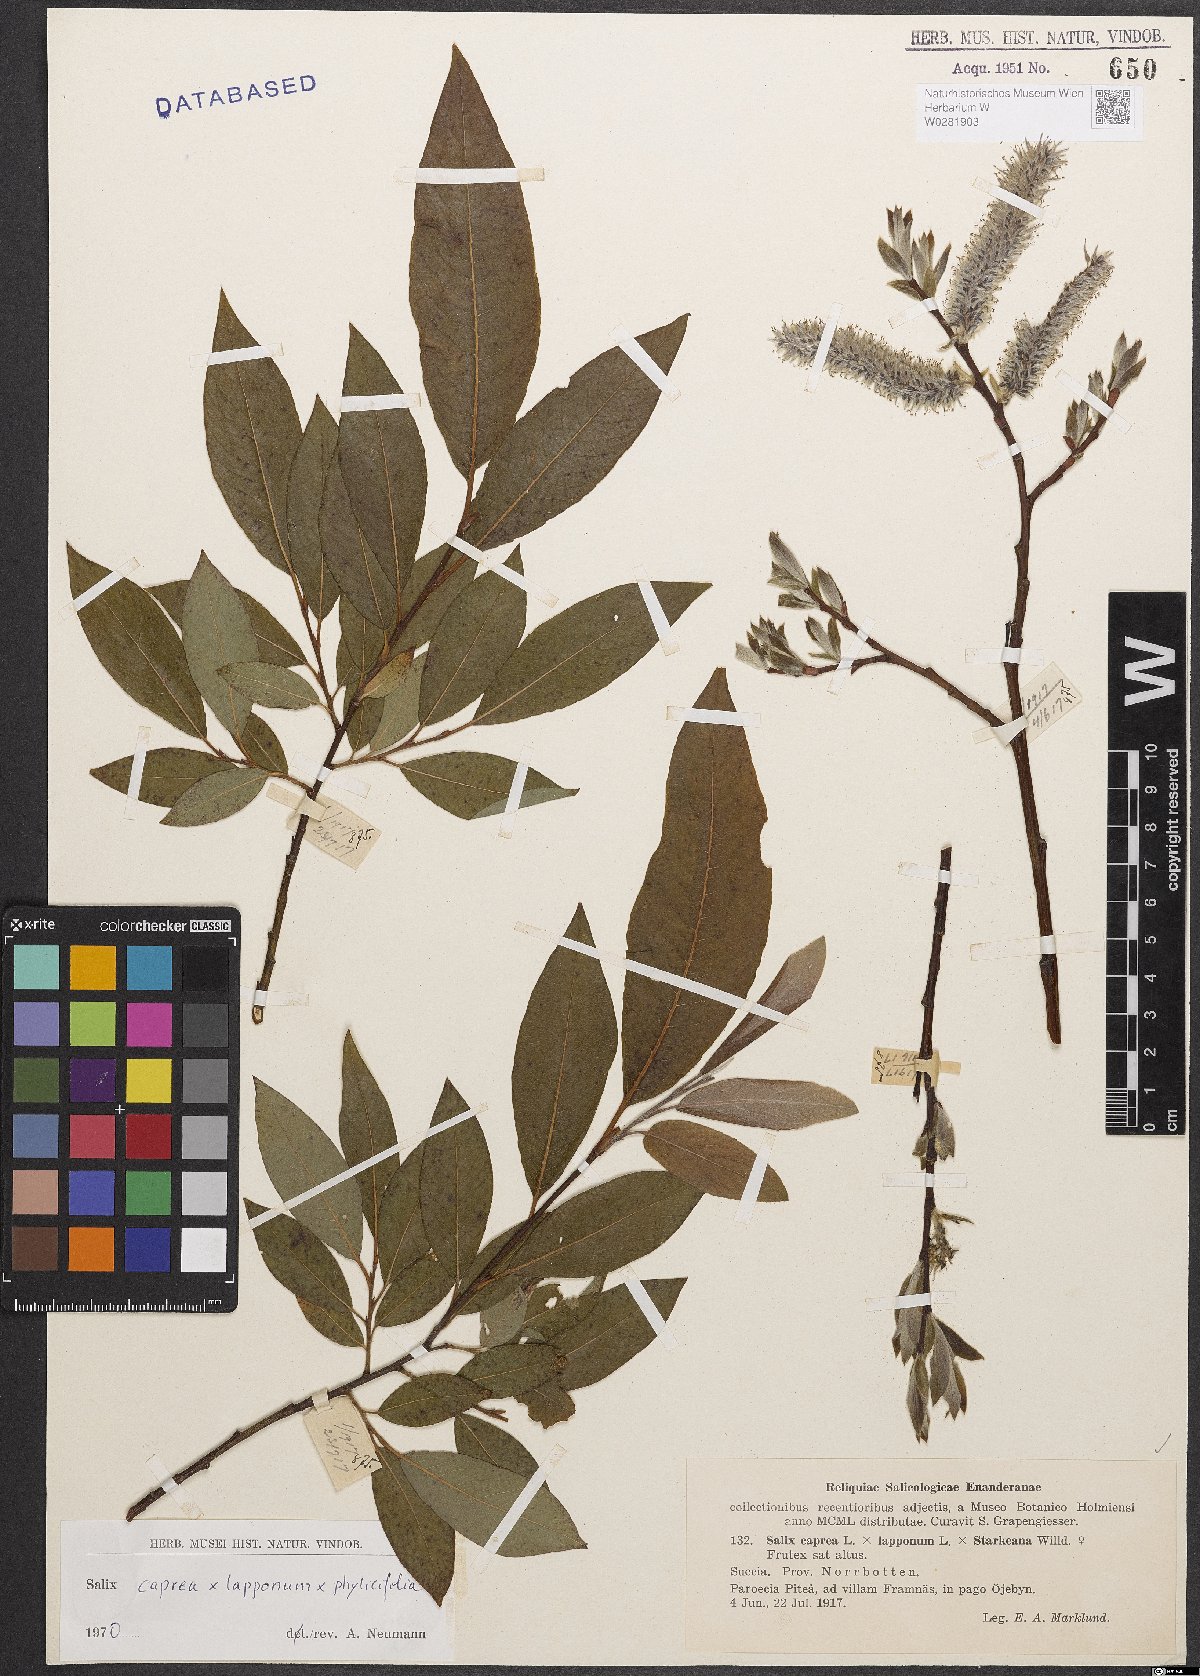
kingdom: Plantae
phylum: Tracheophyta
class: Magnoliopsida
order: Malpighiales
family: Salicaceae
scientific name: Salicaceae
